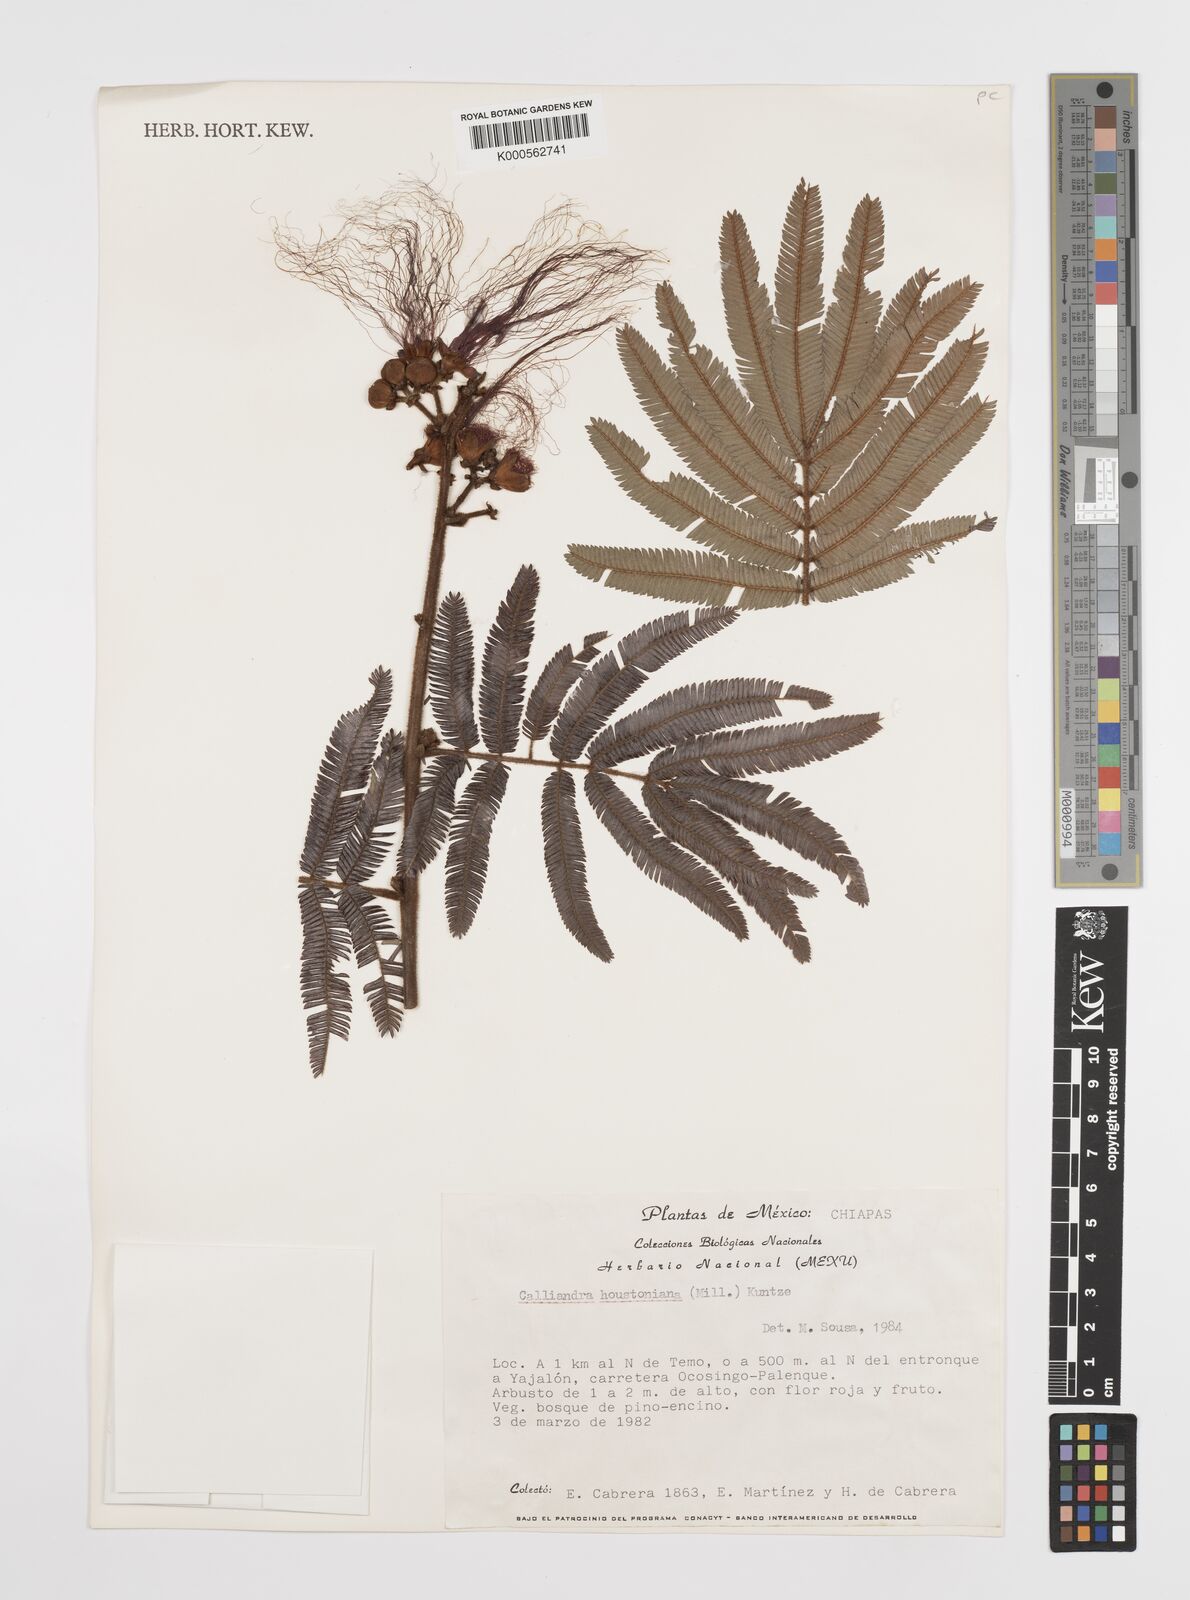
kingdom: Plantae
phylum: Tracheophyta
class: Magnoliopsida
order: Fabales
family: Fabaceae
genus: Calliandra
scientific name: Calliandra houstoniana
